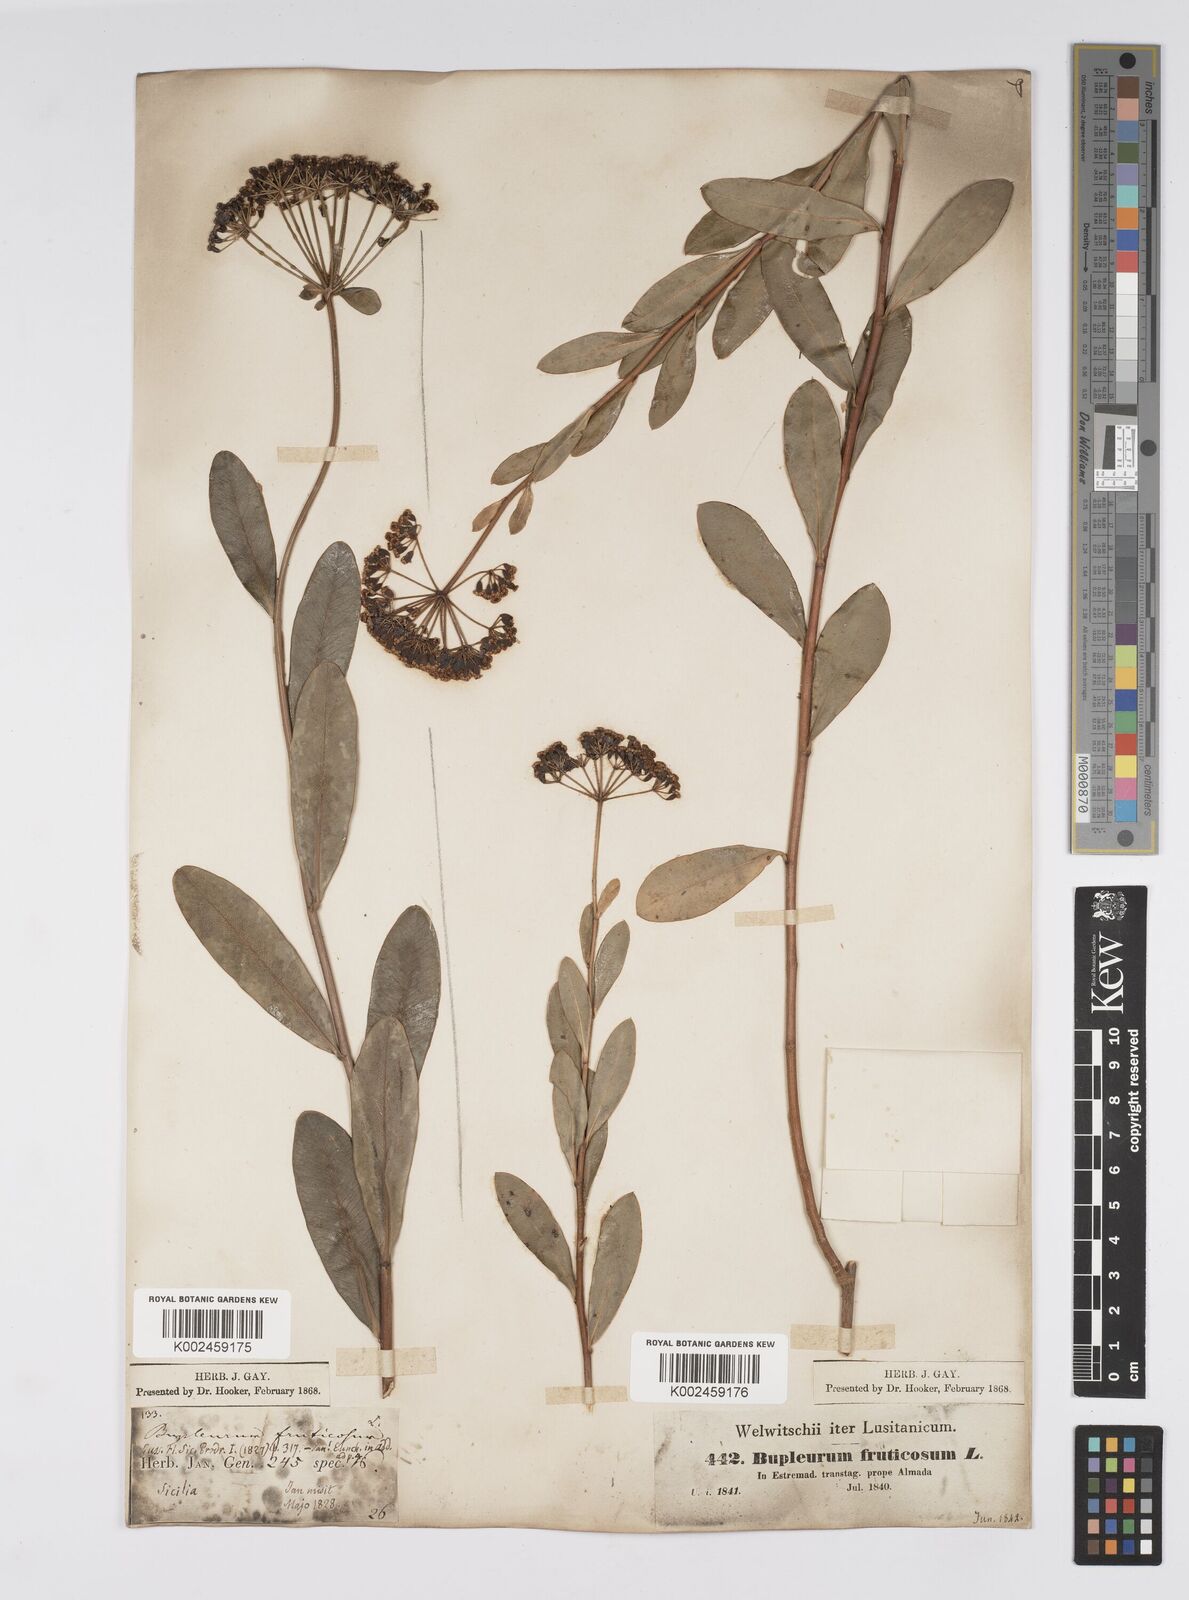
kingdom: Plantae
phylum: Tracheophyta
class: Magnoliopsida
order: Apiales
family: Apiaceae
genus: Bupleurum
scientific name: Bupleurum fruticosum
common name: Shrubby hare's-ear
